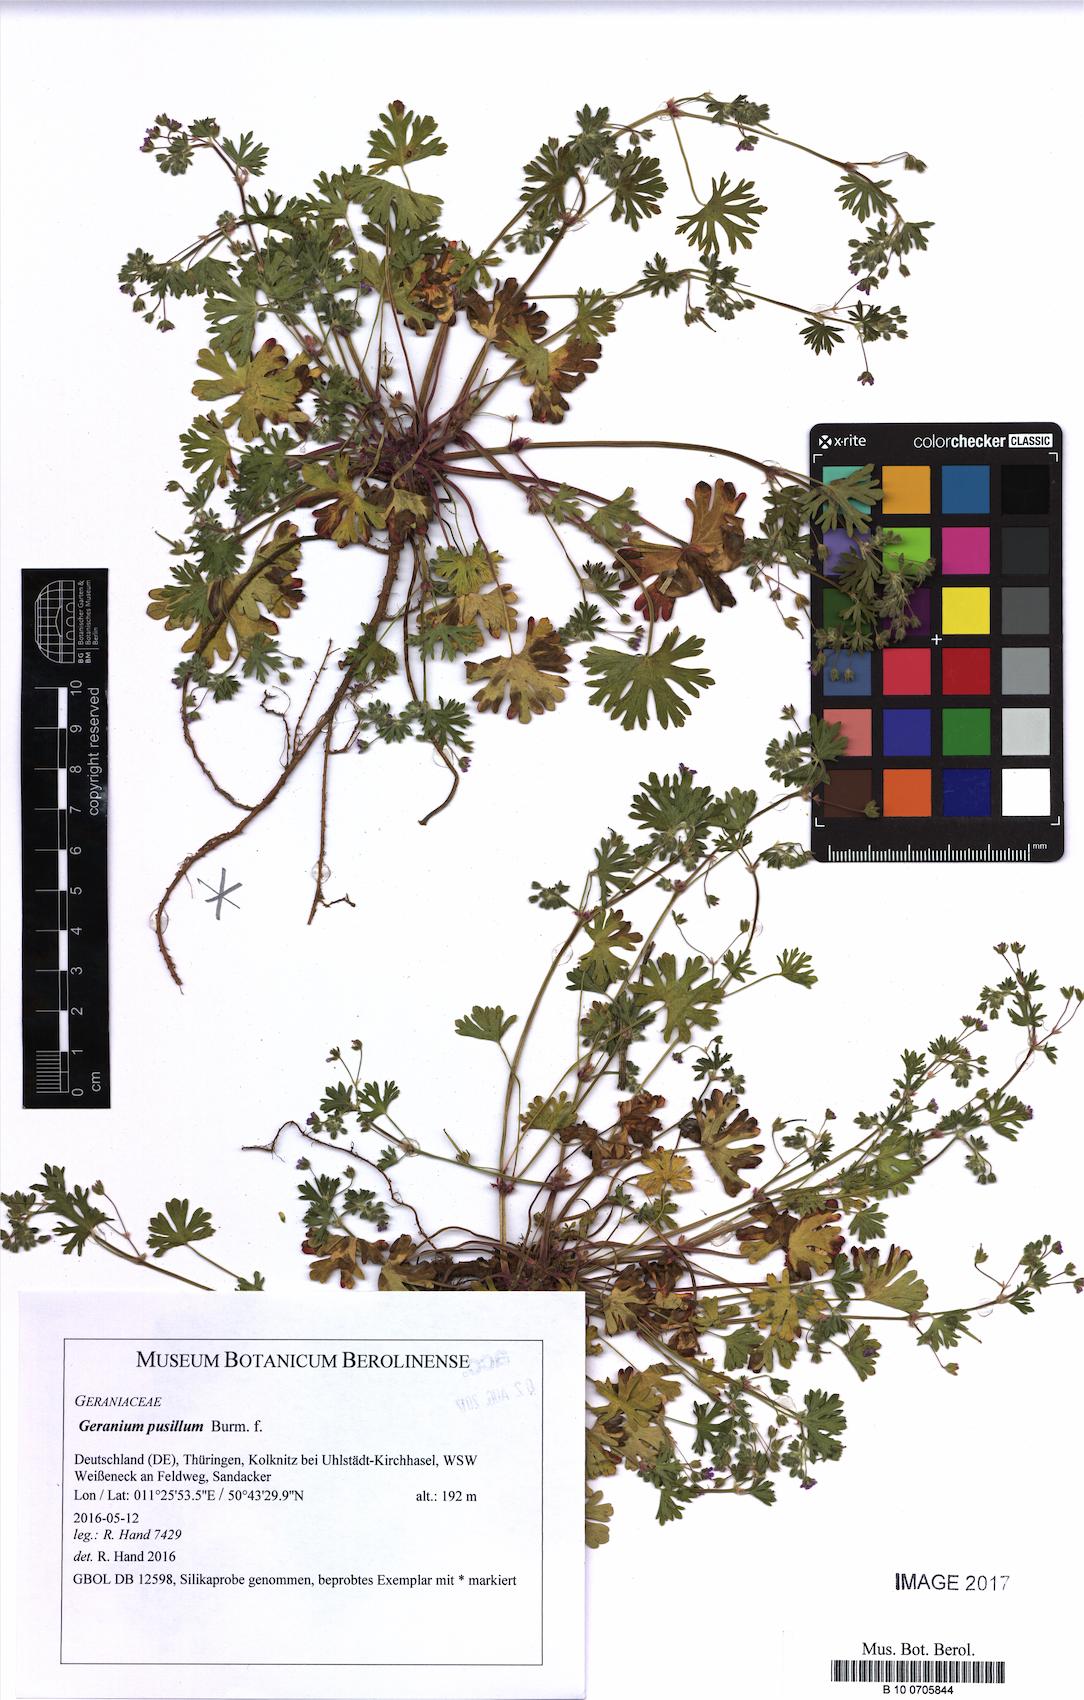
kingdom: Plantae
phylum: Tracheophyta
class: Magnoliopsida
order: Geraniales
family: Geraniaceae
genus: Geranium
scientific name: Geranium pusillum
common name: Small geranium
